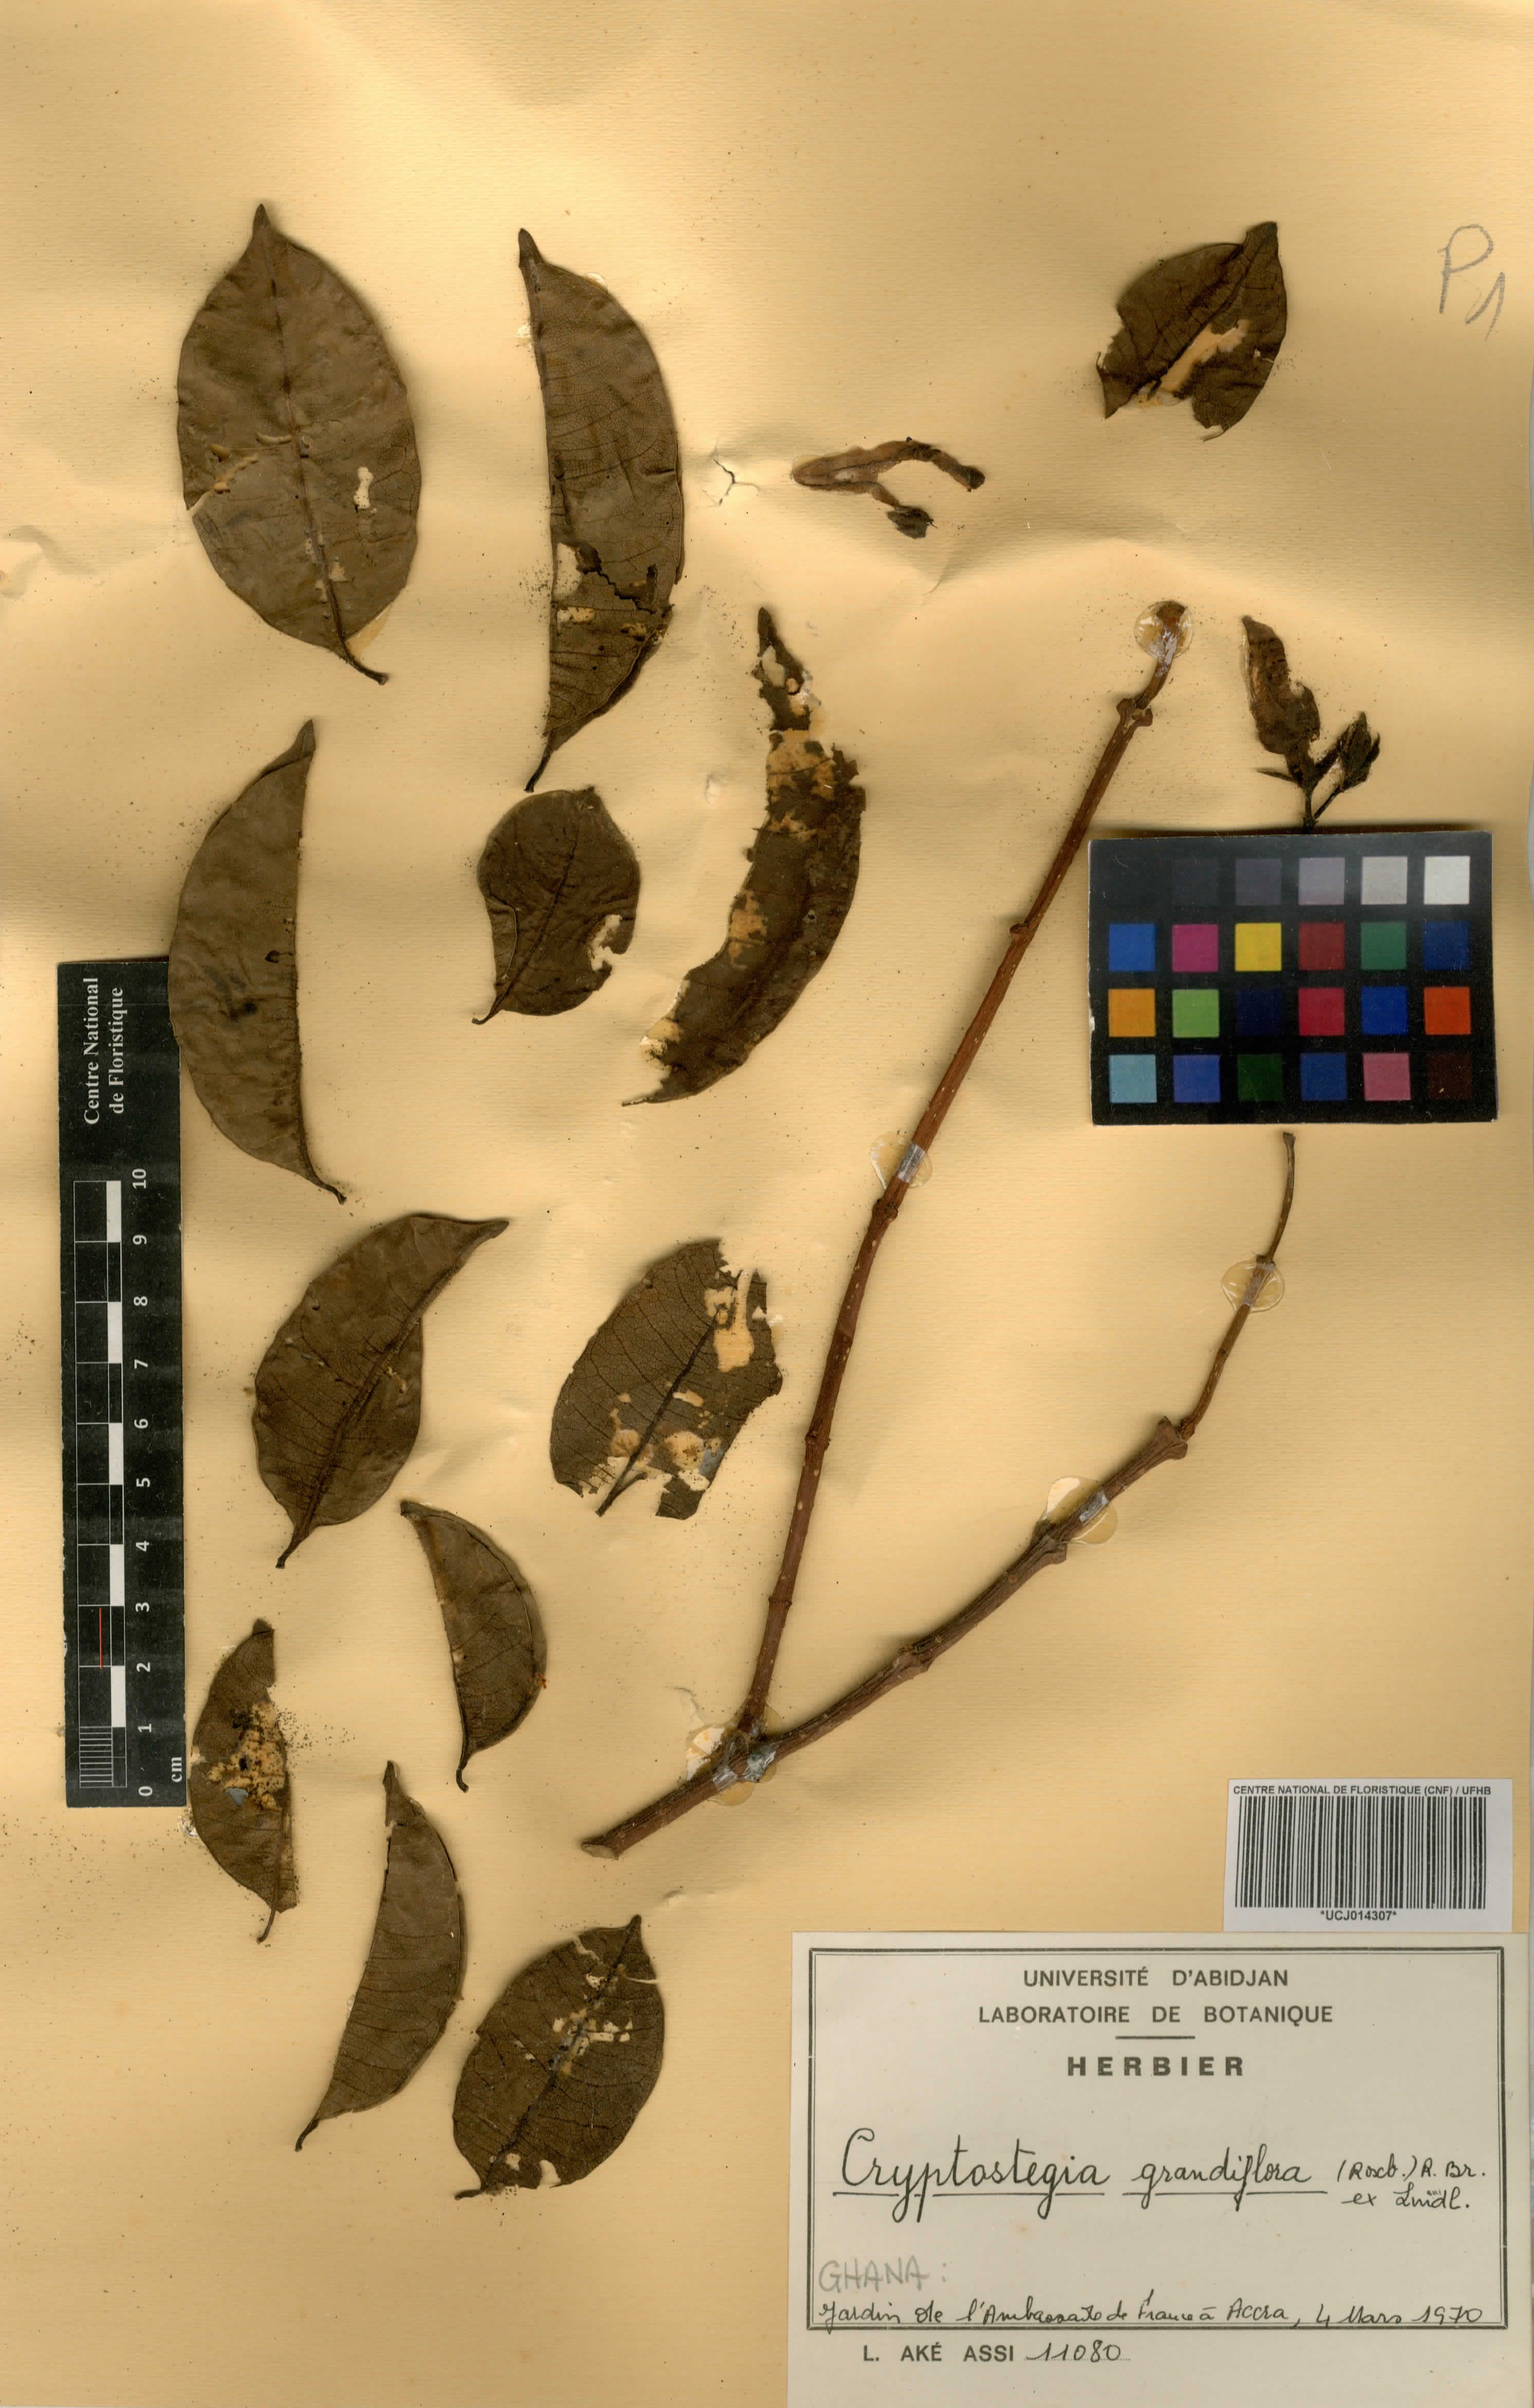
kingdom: Plantae
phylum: Tracheophyta
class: Magnoliopsida
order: Gentianales
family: Apocynaceae
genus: Cryptostegia
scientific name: Cryptostegia grandiflora
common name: Palay rubbervine
